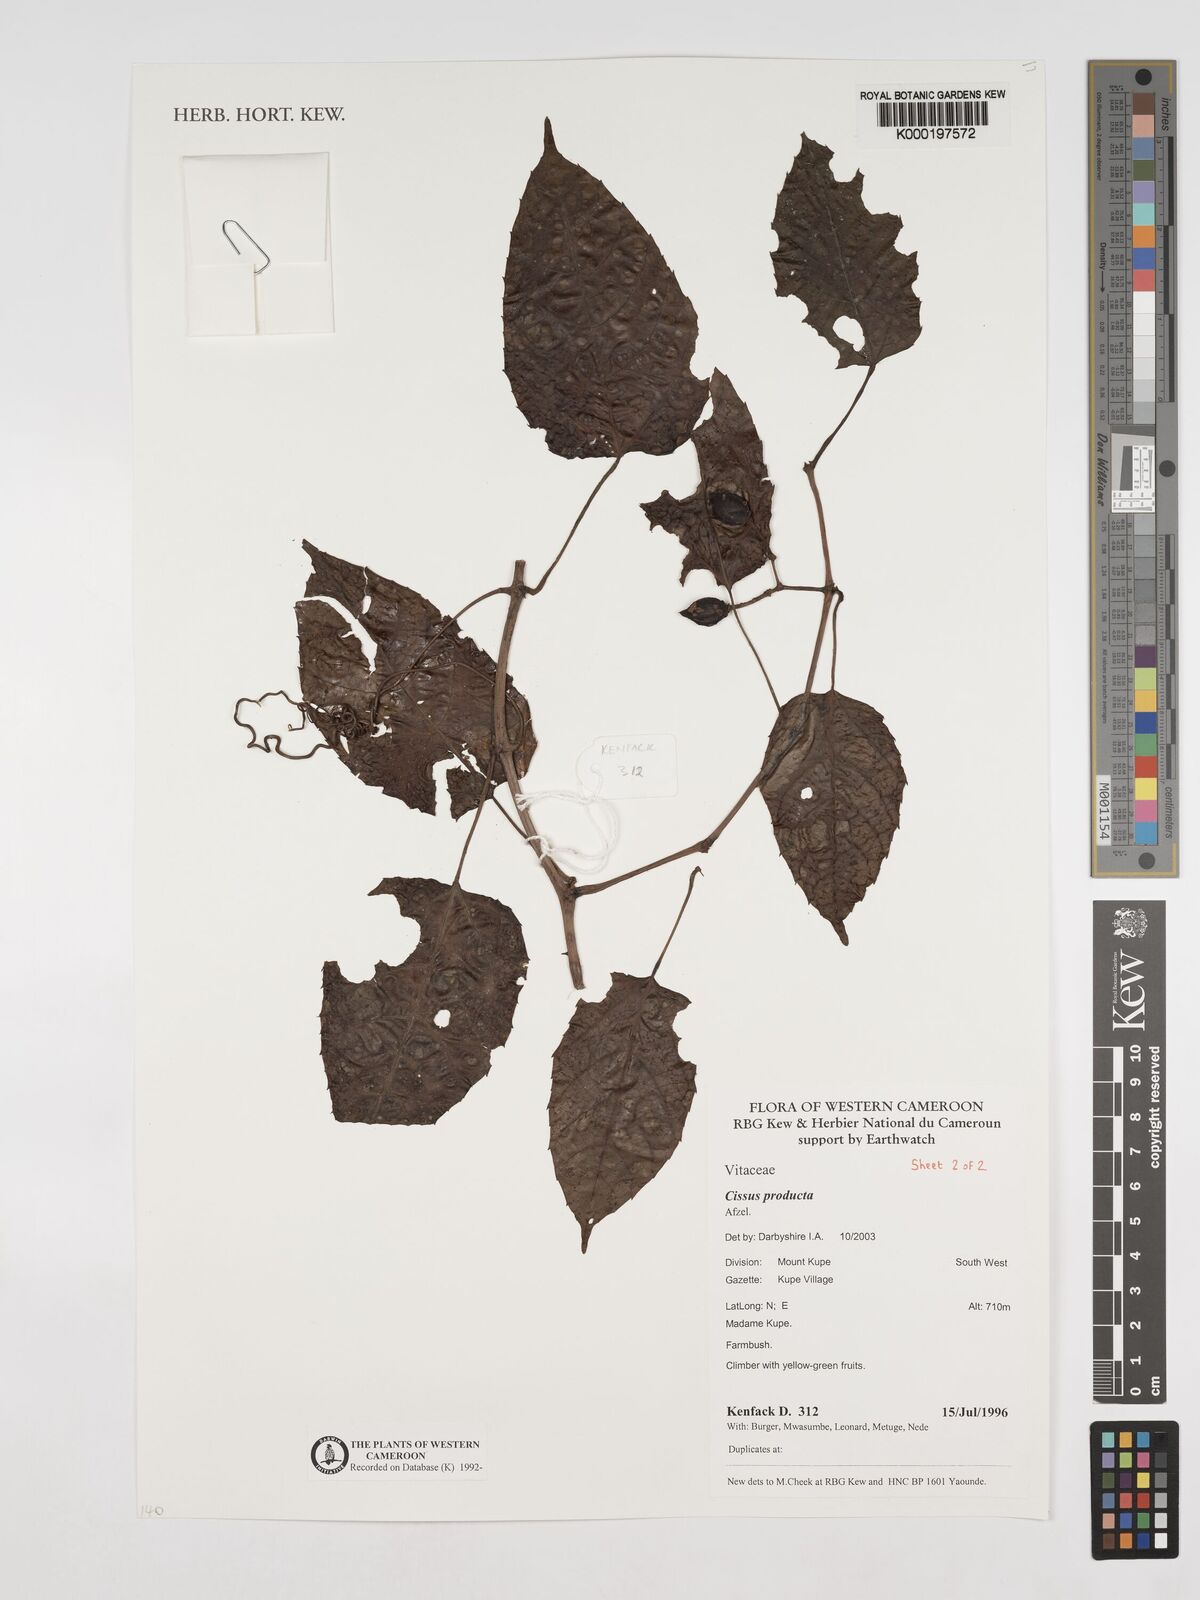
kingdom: Plantae
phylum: Tracheophyta
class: Magnoliopsida
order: Vitales
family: Vitaceae
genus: Cissus
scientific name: Cissus producta
